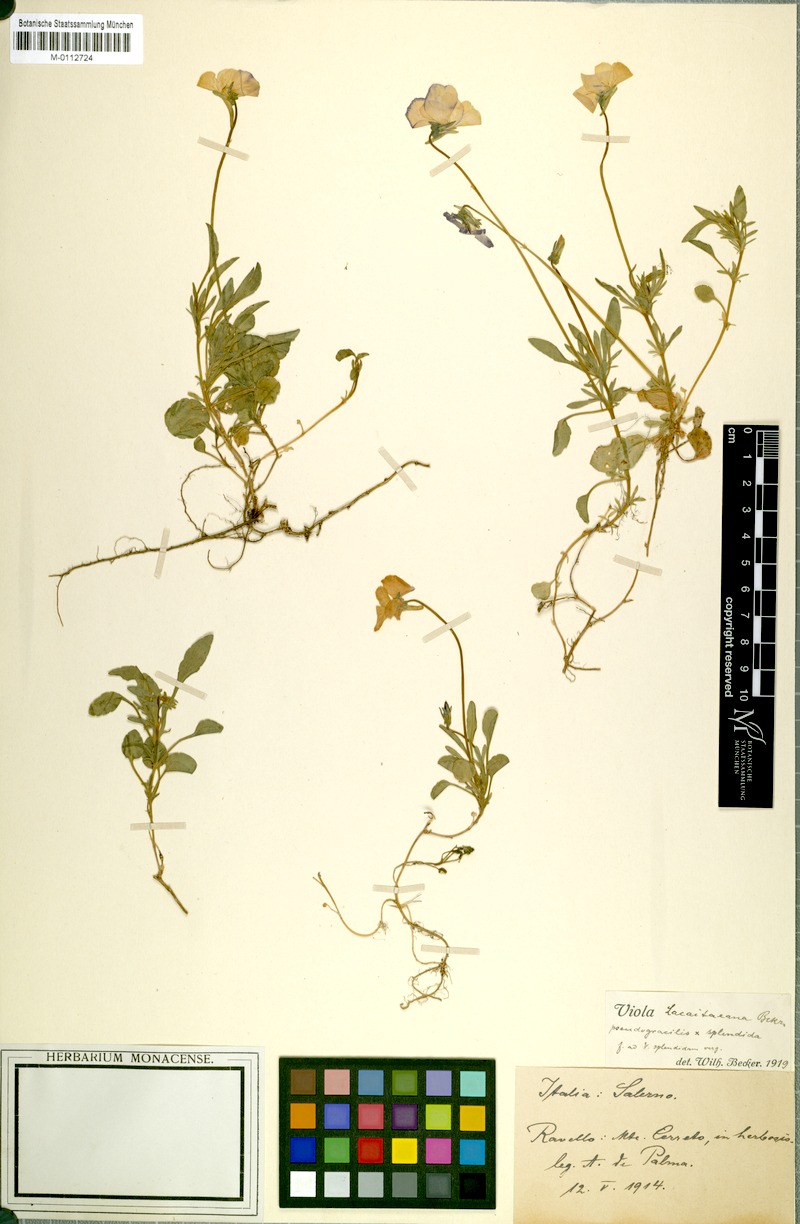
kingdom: Plantae
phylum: Tracheophyta
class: Magnoliopsida
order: Malpighiales
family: Violaceae
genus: Viola
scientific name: Viola aethnensis
